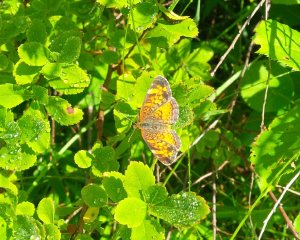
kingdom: Animalia
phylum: Arthropoda
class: Insecta
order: Lepidoptera
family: Nymphalidae
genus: Phyciodes
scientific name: Phyciodes tharos
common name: Northern Crescent
